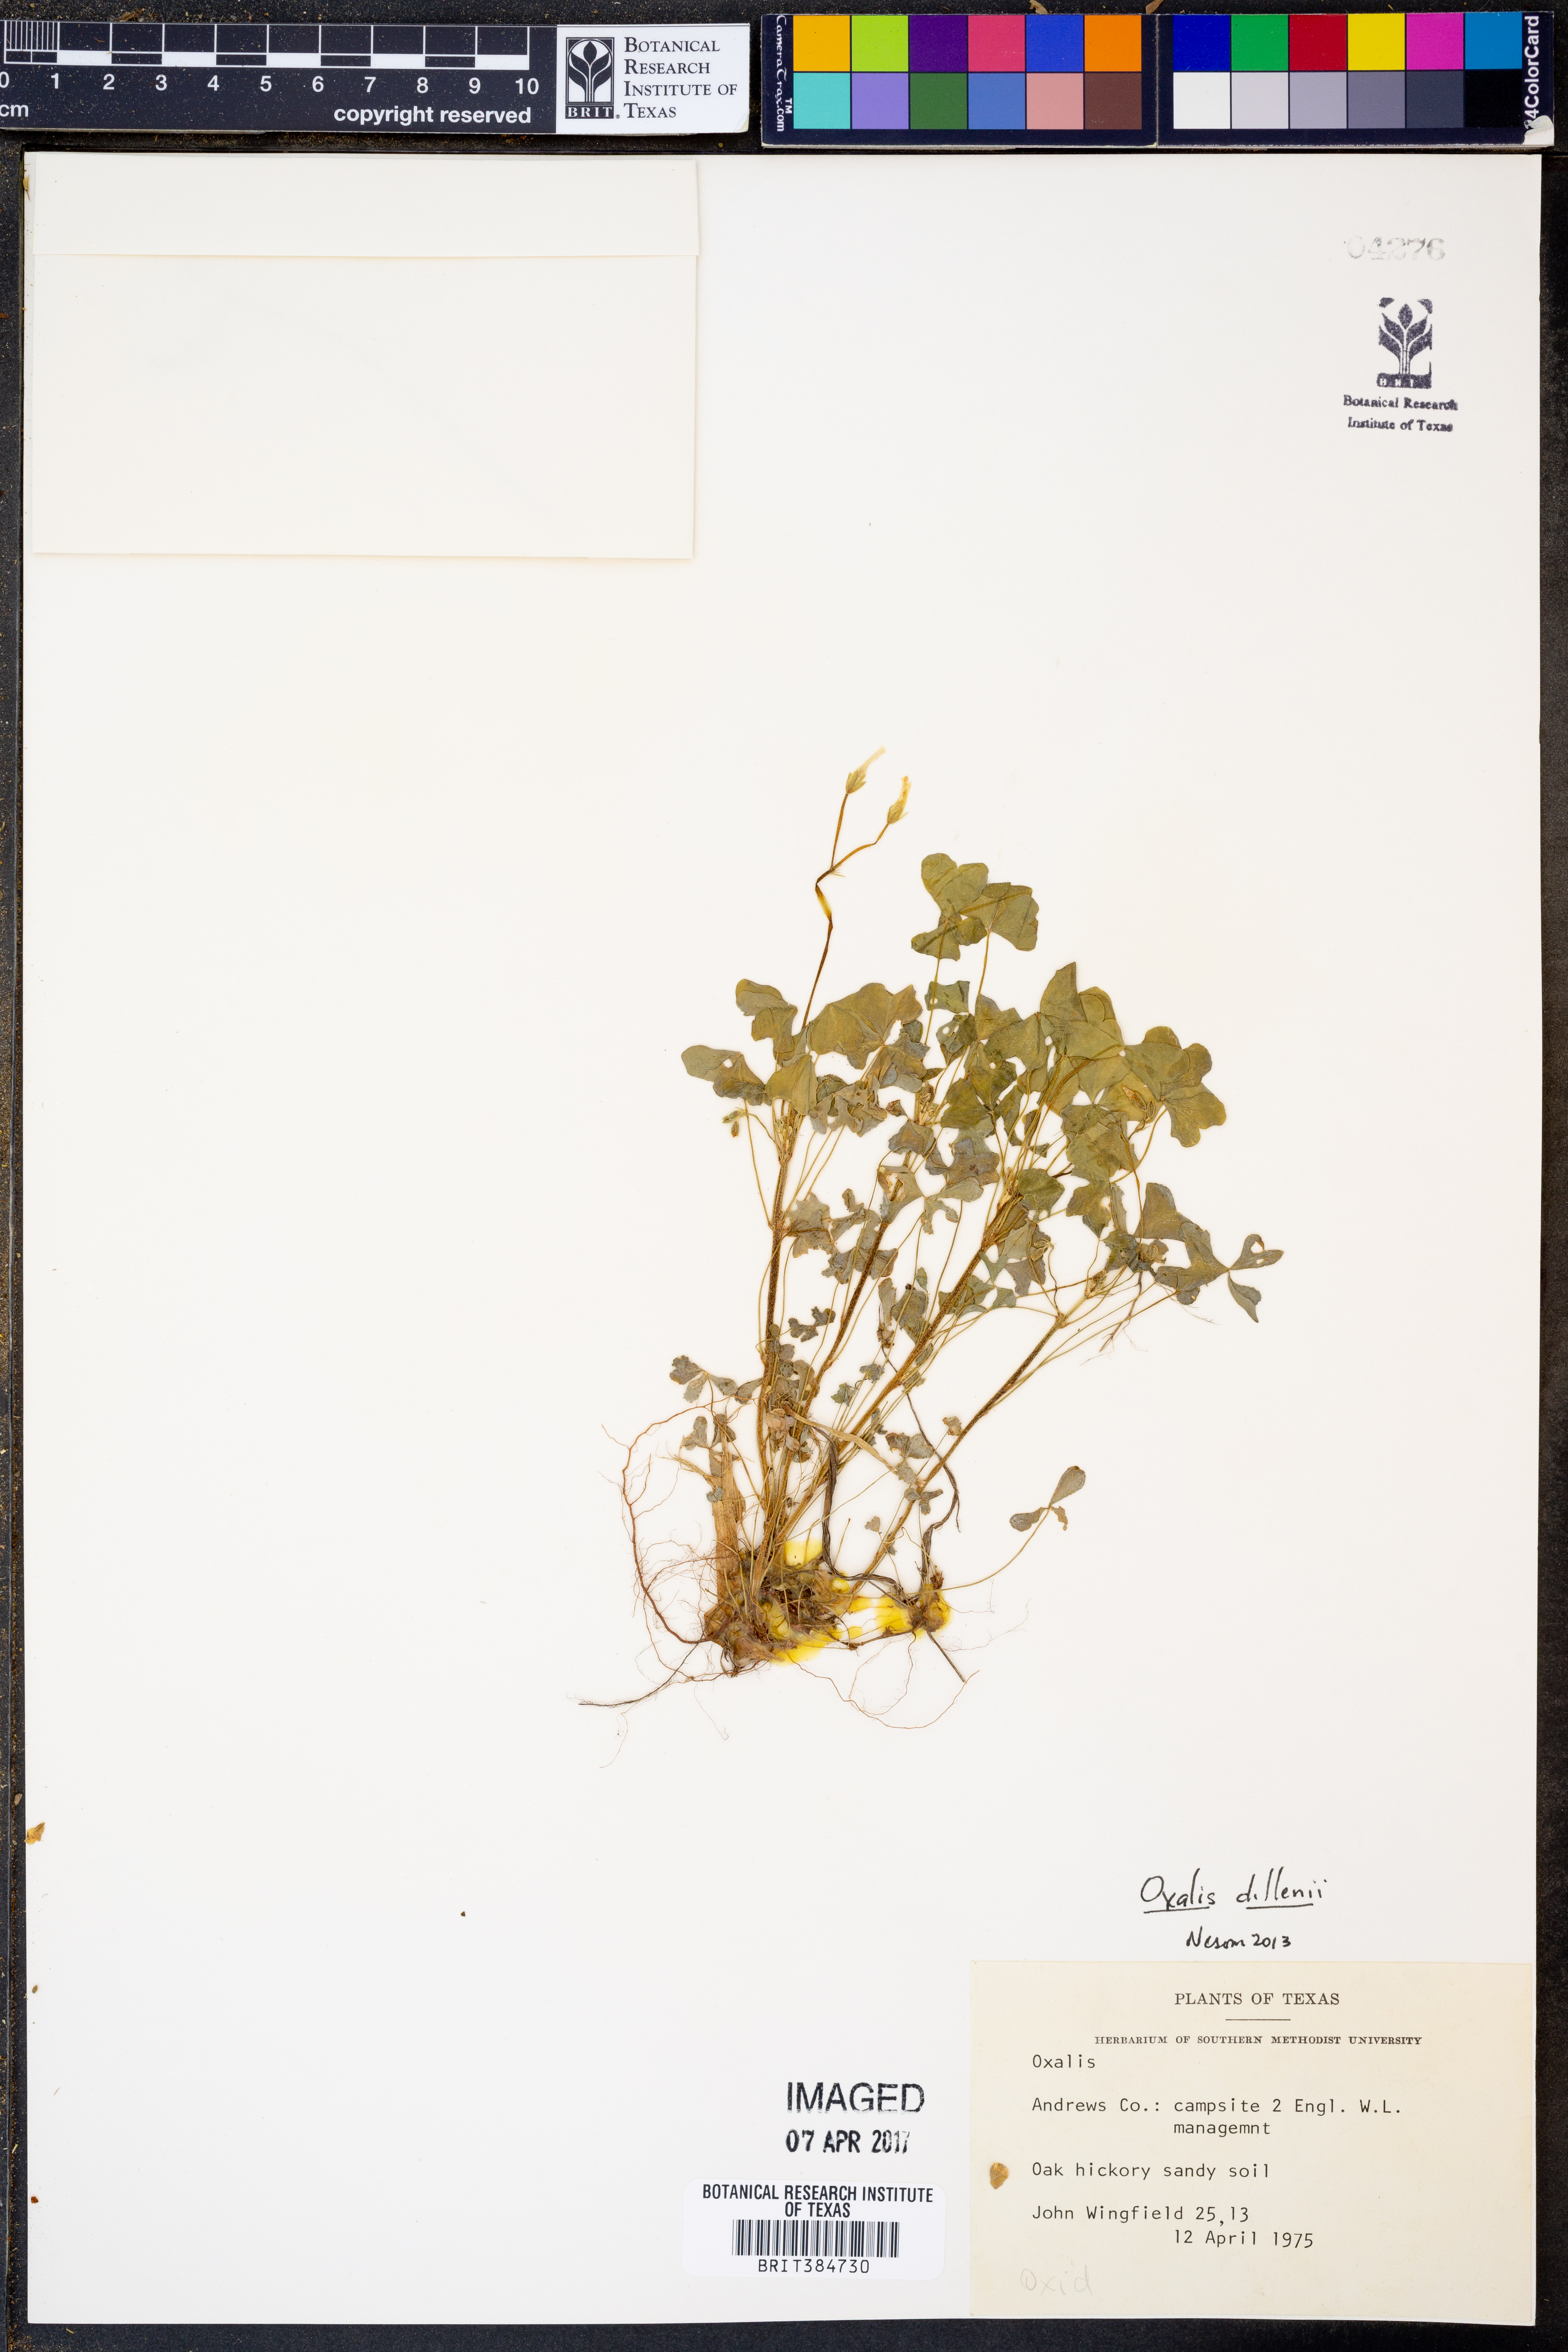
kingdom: Plantae
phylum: Tracheophyta
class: Magnoliopsida
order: Oxalidales
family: Oxalidaceae
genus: Oxalis
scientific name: Oxalis dillenii
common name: Sussex yellow-sorrel
